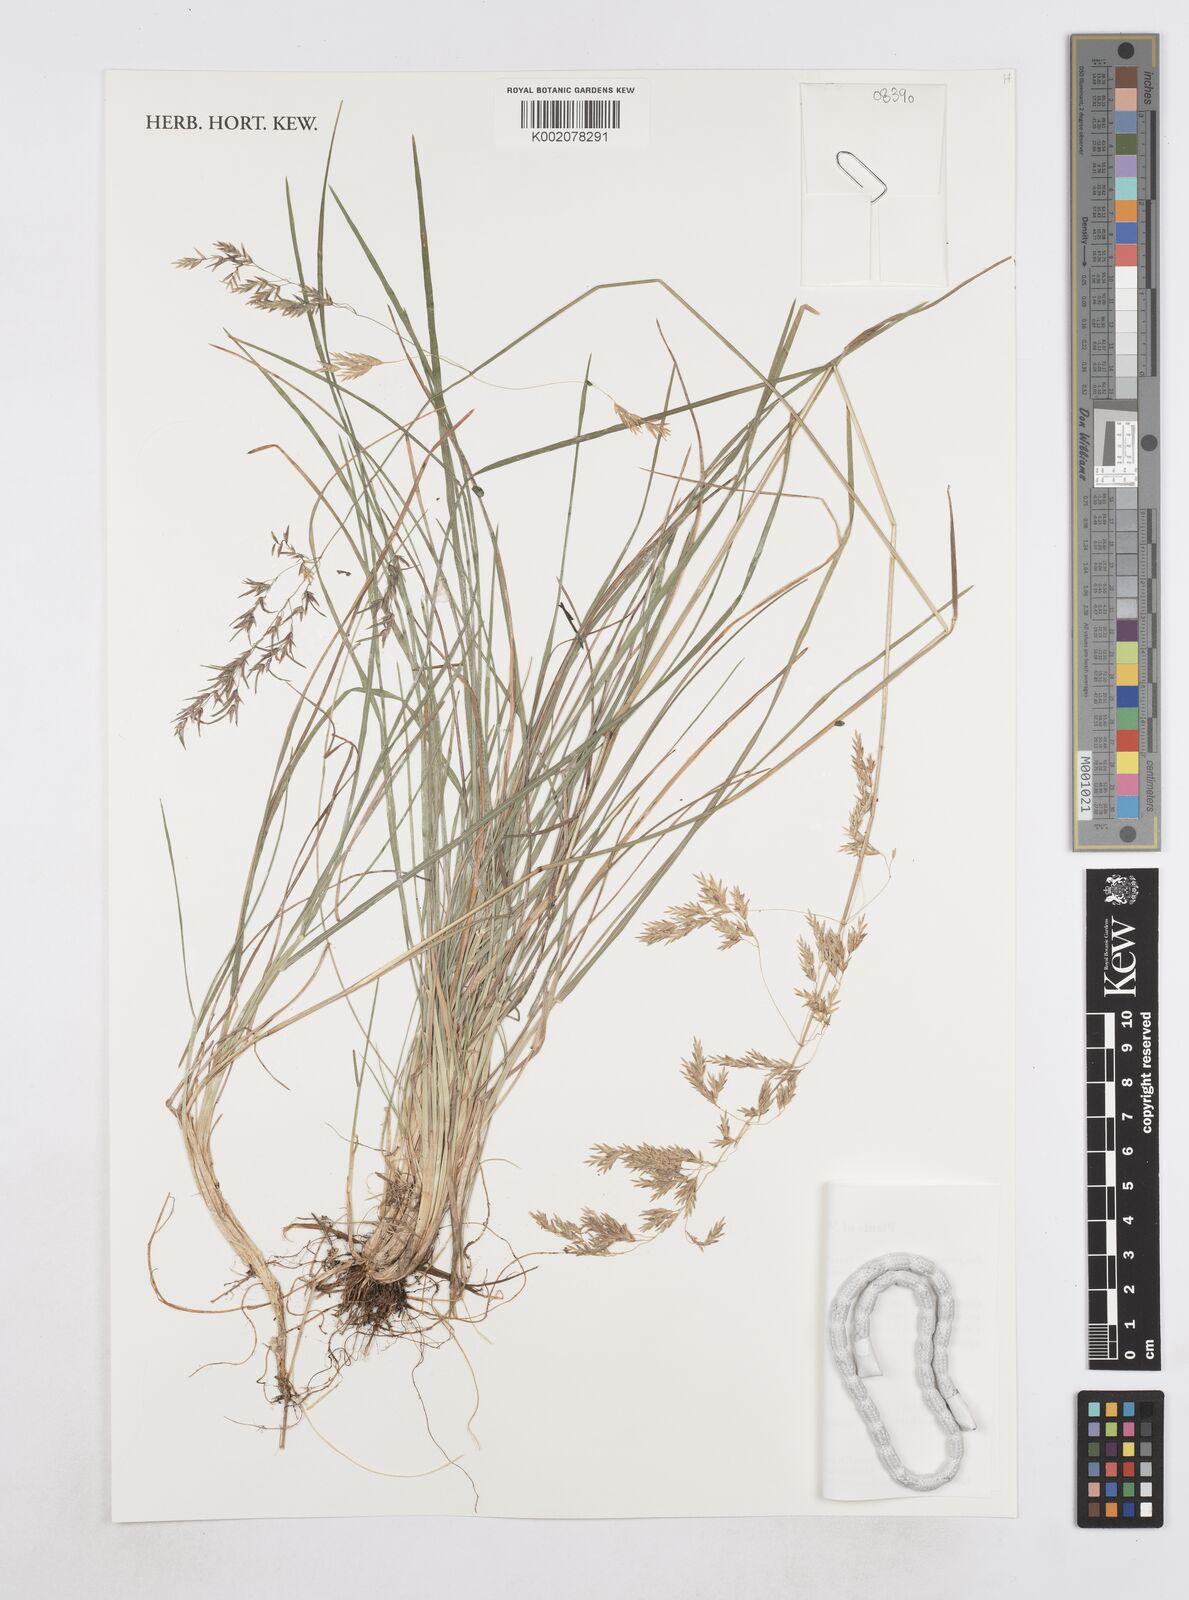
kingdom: Plantae
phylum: Tracheophyta
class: Liliopsida
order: Poales
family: Poaceae
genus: Poa
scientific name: Poa palmeri
